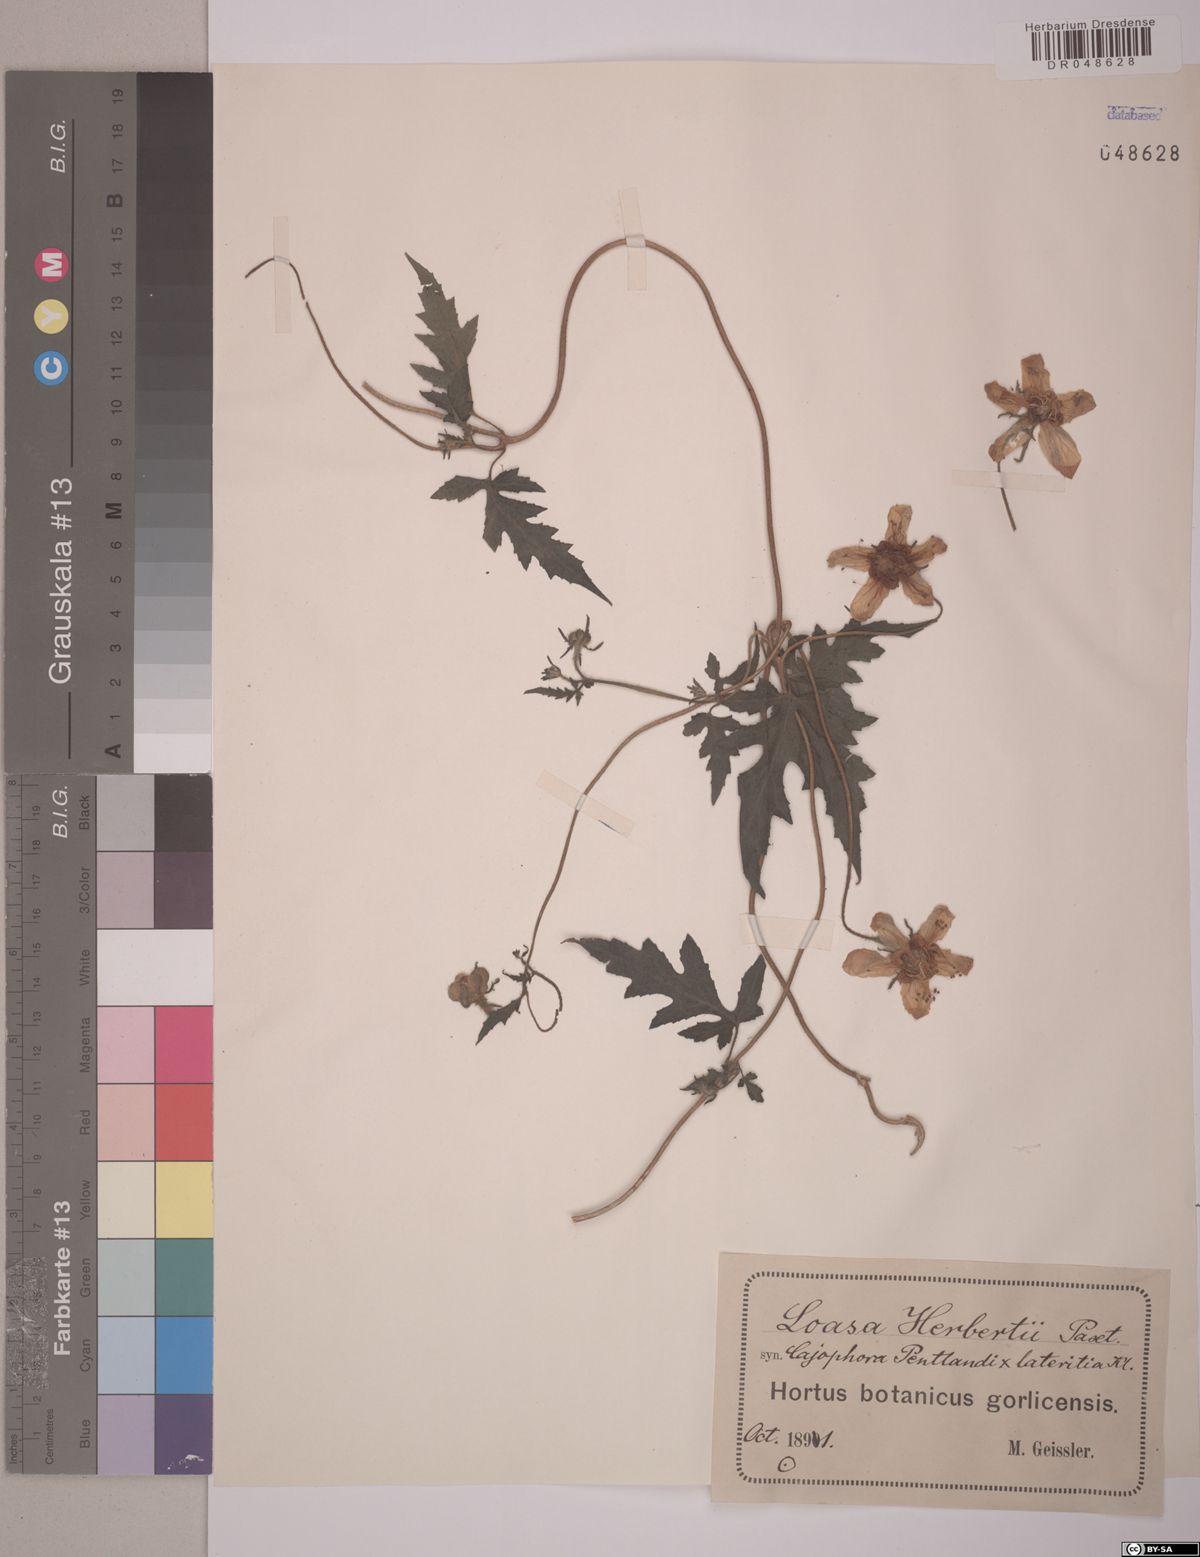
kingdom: Plantae
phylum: Tracheophyta
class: Magnoliopsida
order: Cornales
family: Loasaceae
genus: Loasa
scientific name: Loasa
